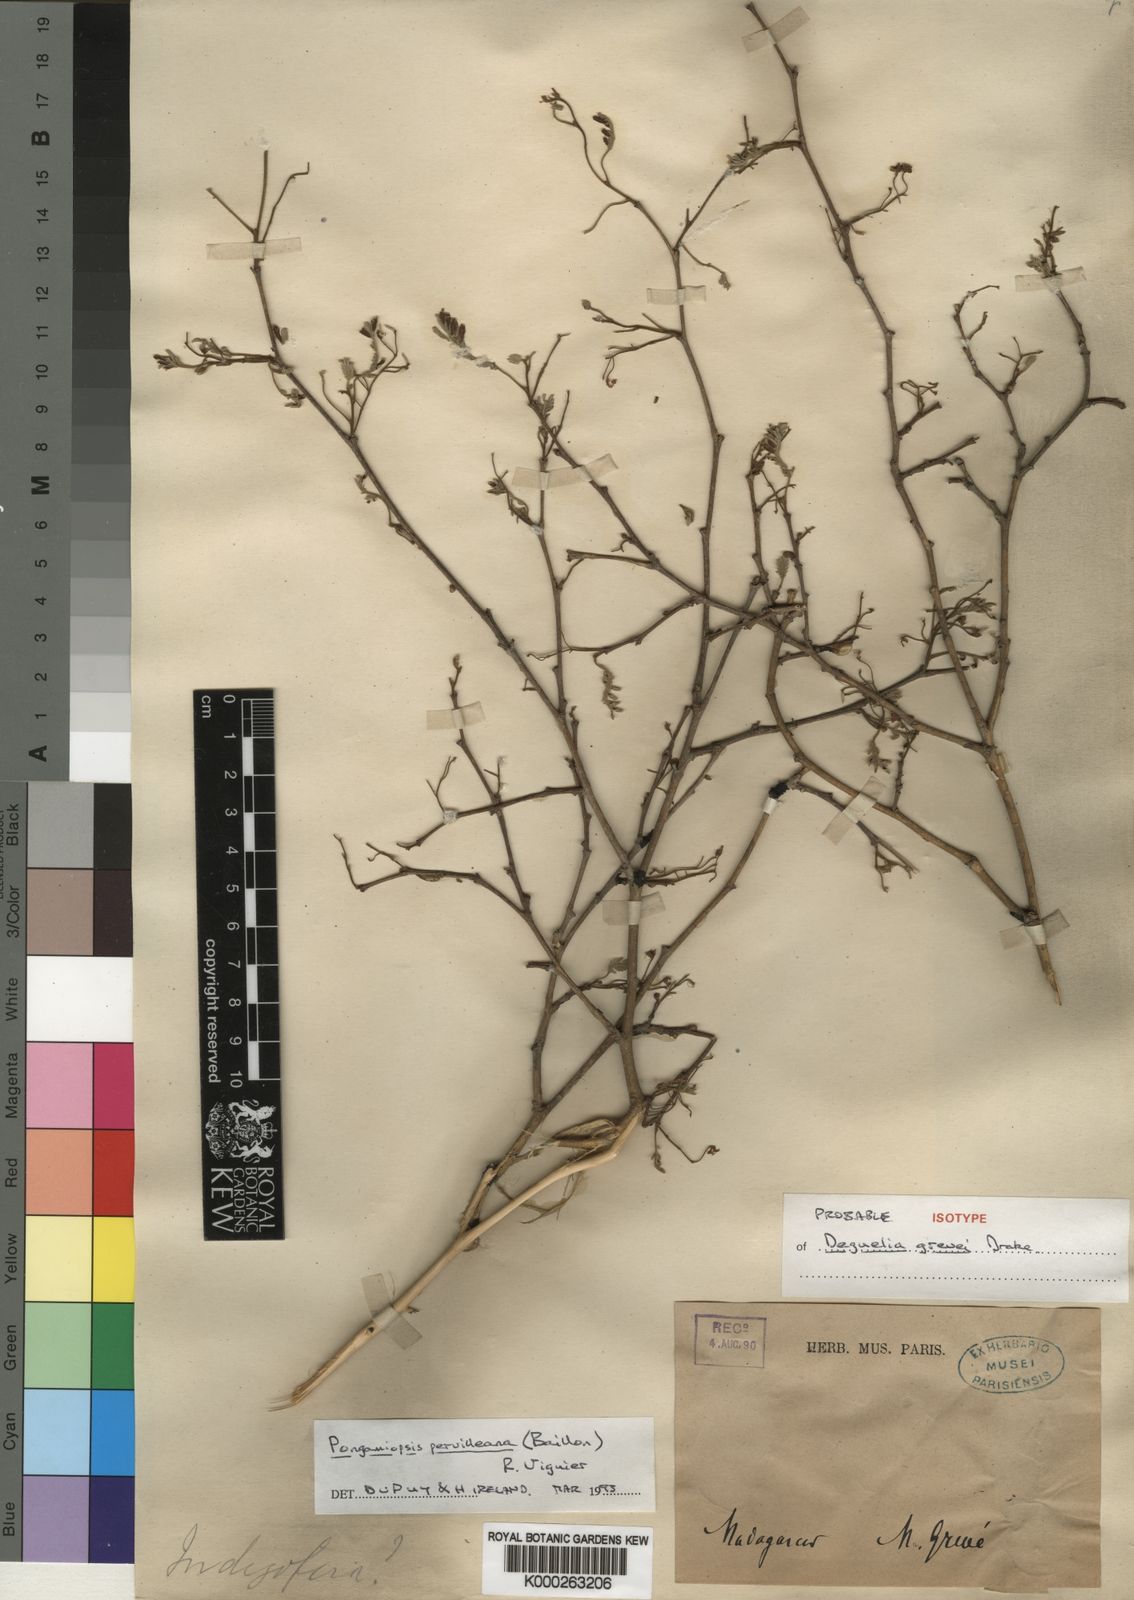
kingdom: Plantae
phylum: Tracheophyta
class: Magnoliopsida
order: Fabales
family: Fabaceae
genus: Pongamiopsis
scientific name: Pongamiopsis pervilleana
